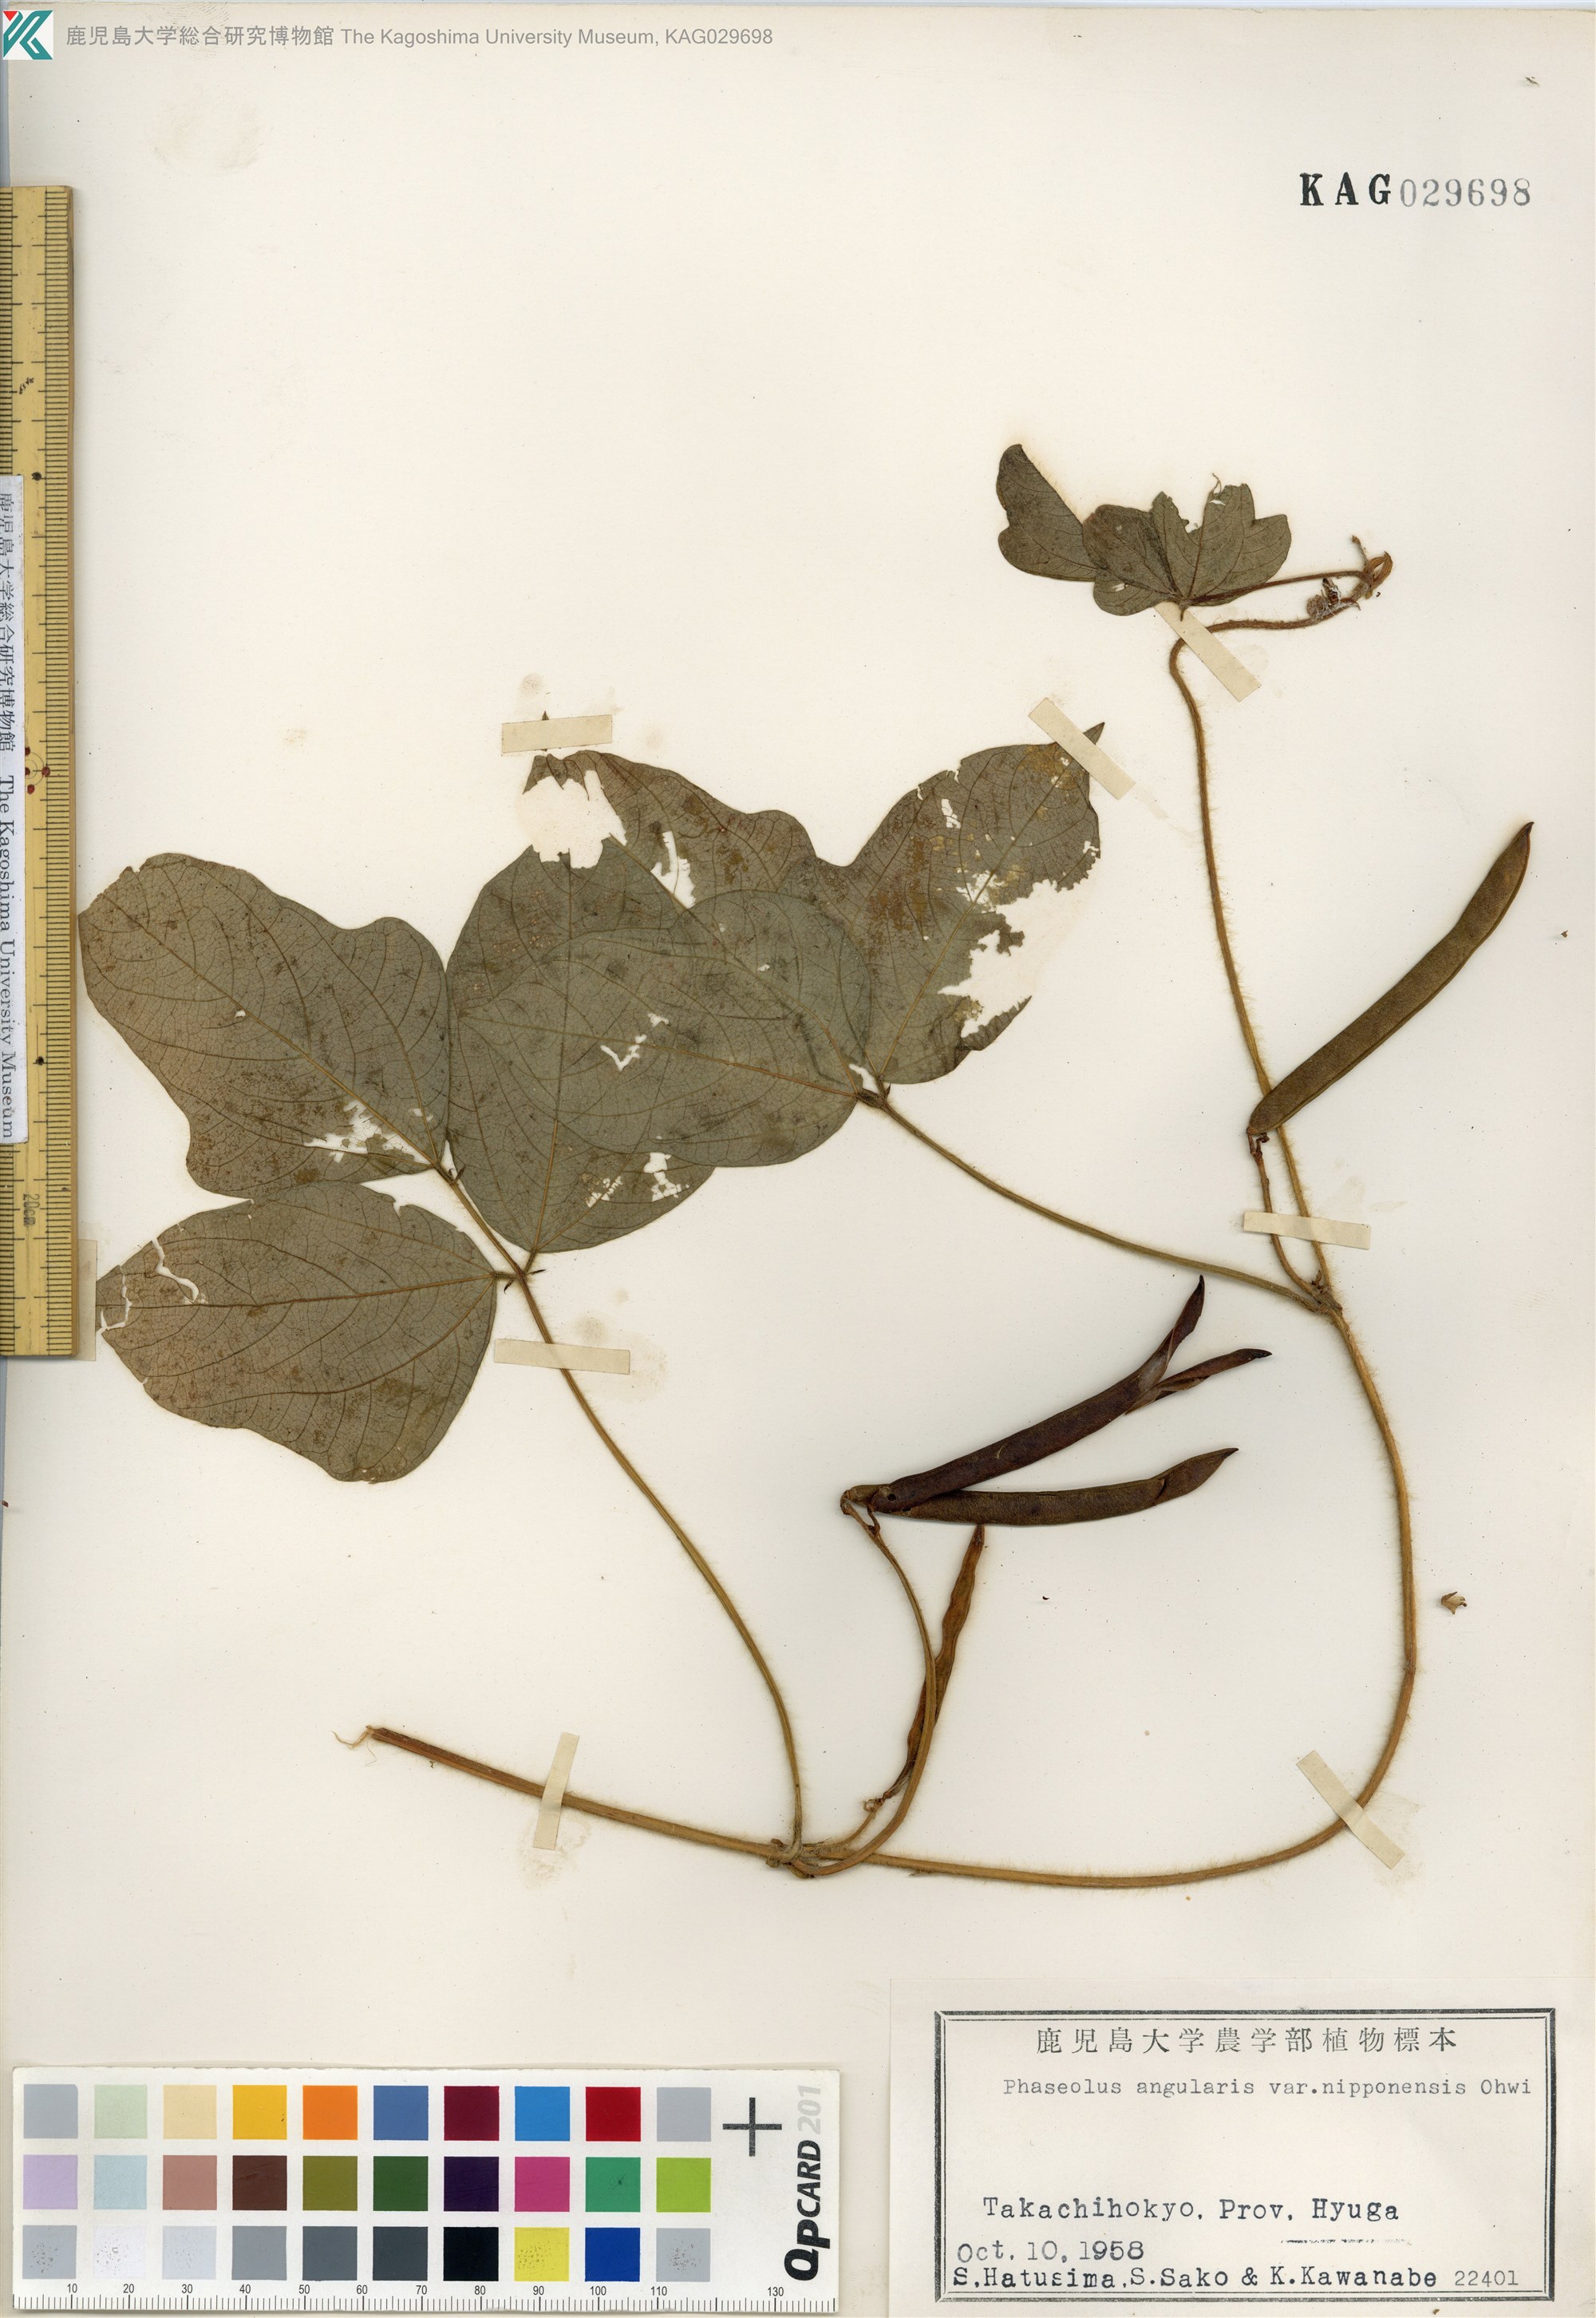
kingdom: Plantae
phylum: Tracheophyta
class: Magnoliopsida
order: Fabales
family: Fabaceae
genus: Vigna
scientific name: Vigna angularis
